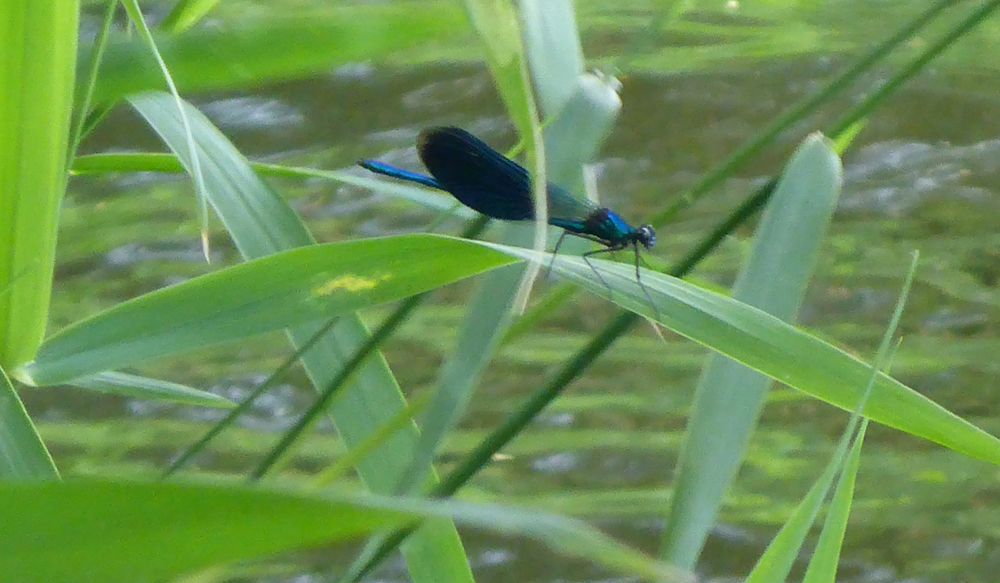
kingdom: Animalia
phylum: Arthropoda
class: Insecta
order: Odonata
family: Calopterygidae
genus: Calopteryx
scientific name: Calopteryx splendens
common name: Banded demoiselle
